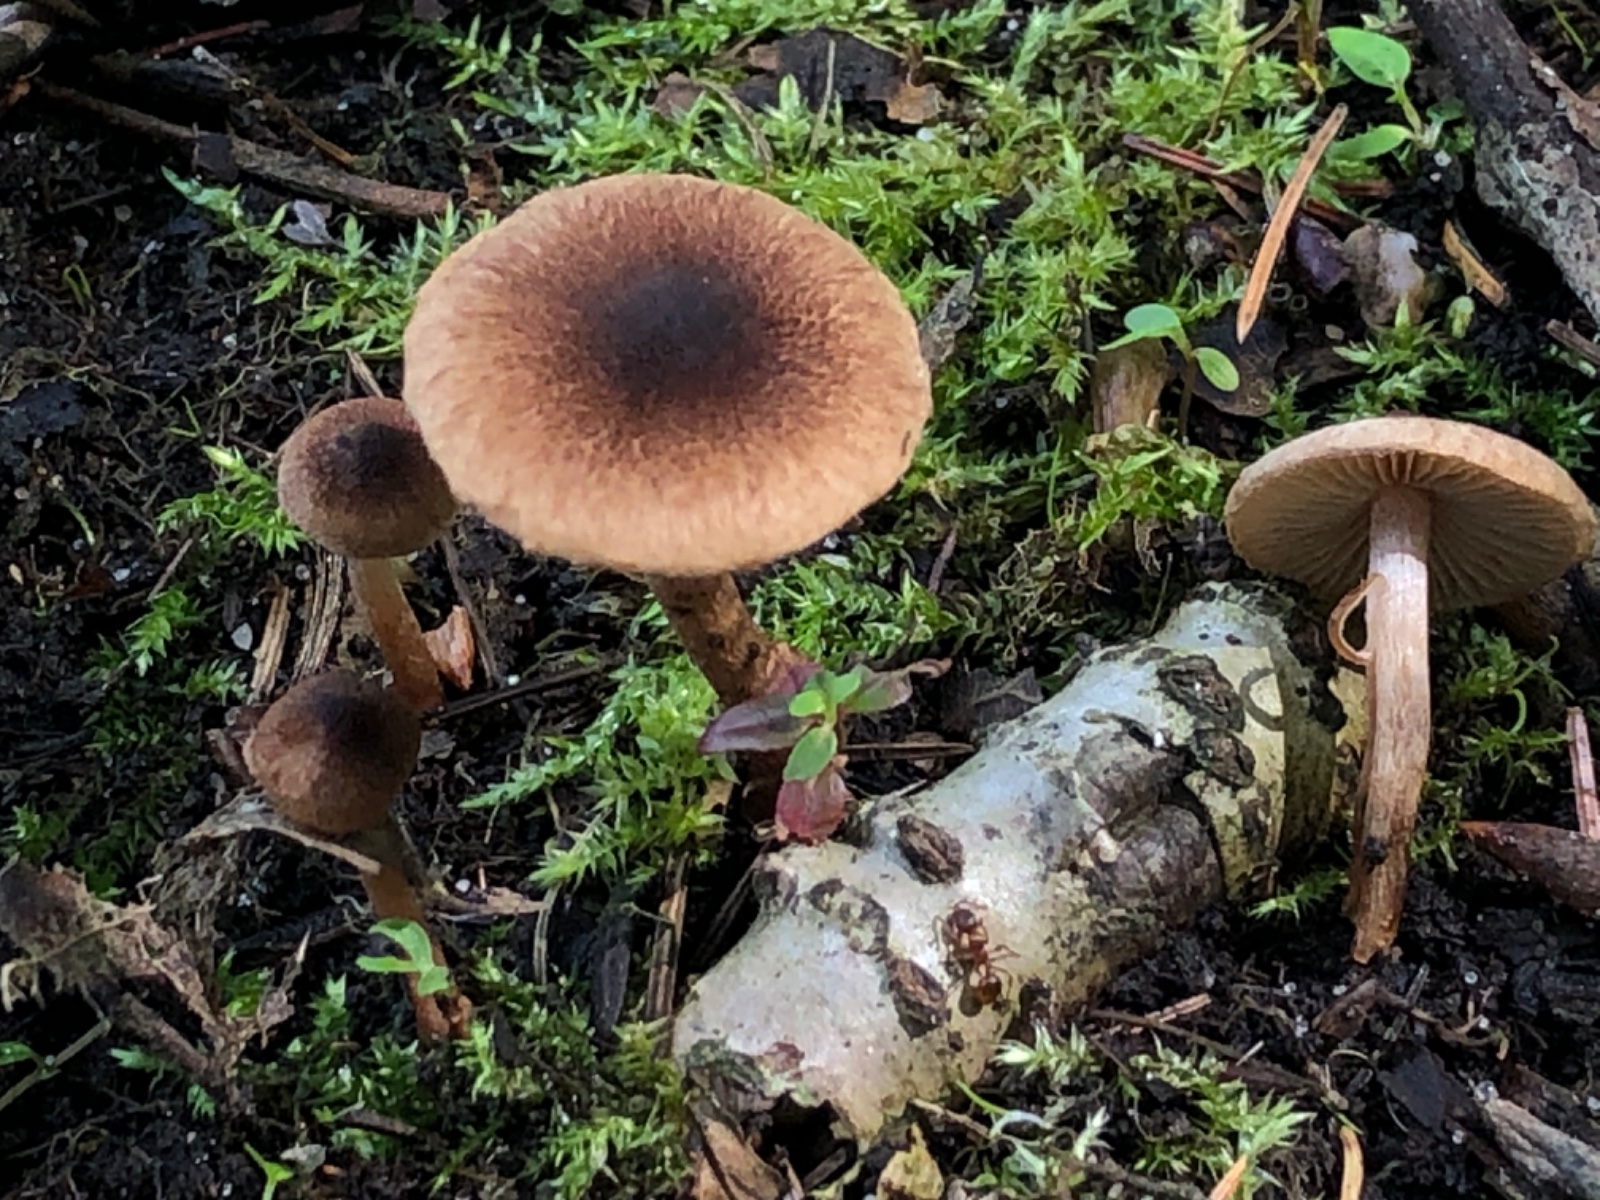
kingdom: Fungi
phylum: Basidiomycota
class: Agaricomycetes
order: Agaricales
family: Inocybaceae
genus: Inocybe
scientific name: Inocybe
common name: trævlhat
